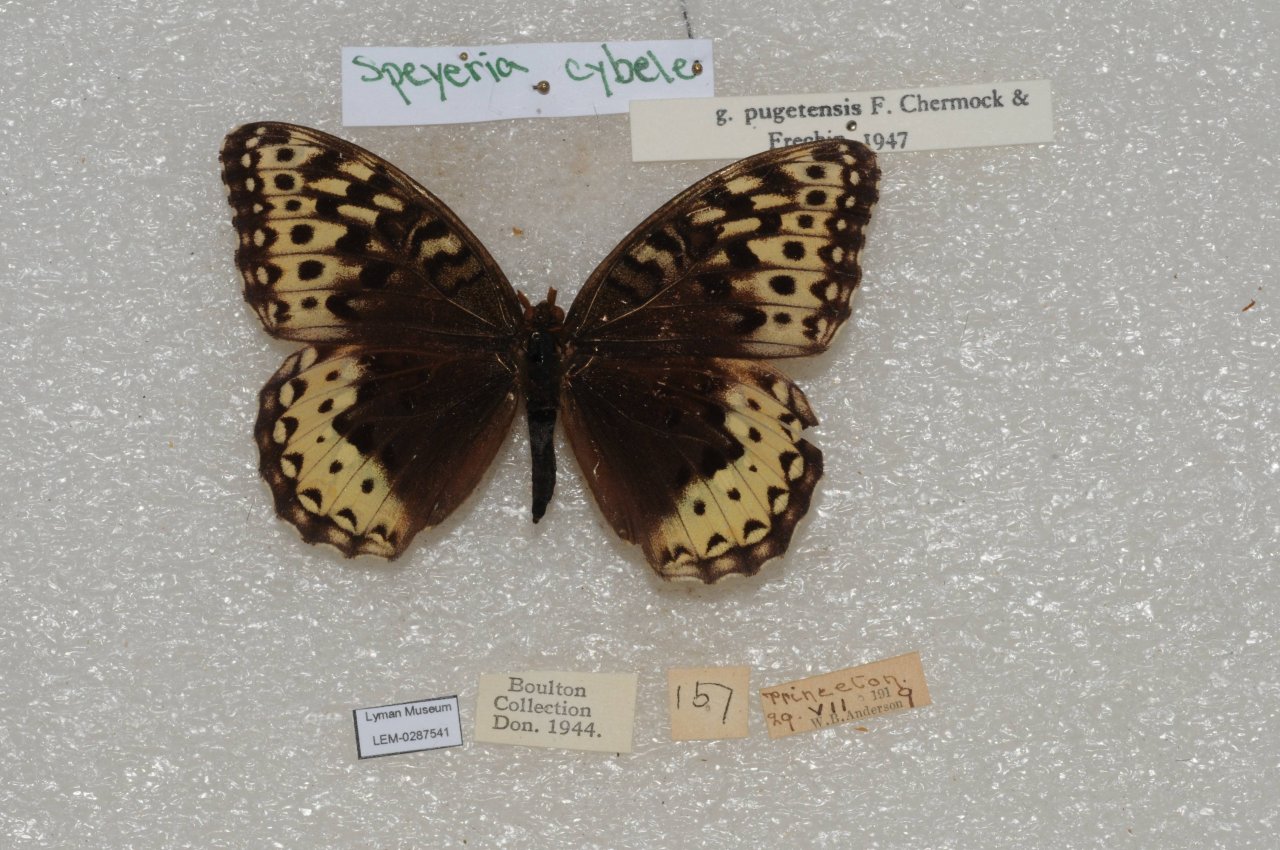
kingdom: Animalia
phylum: Arthropoda
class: Insecta
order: Lepidoptera
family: Nymphalidae
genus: Speyeria
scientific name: Speyeria cybele
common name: Great Spangled Fritillary
